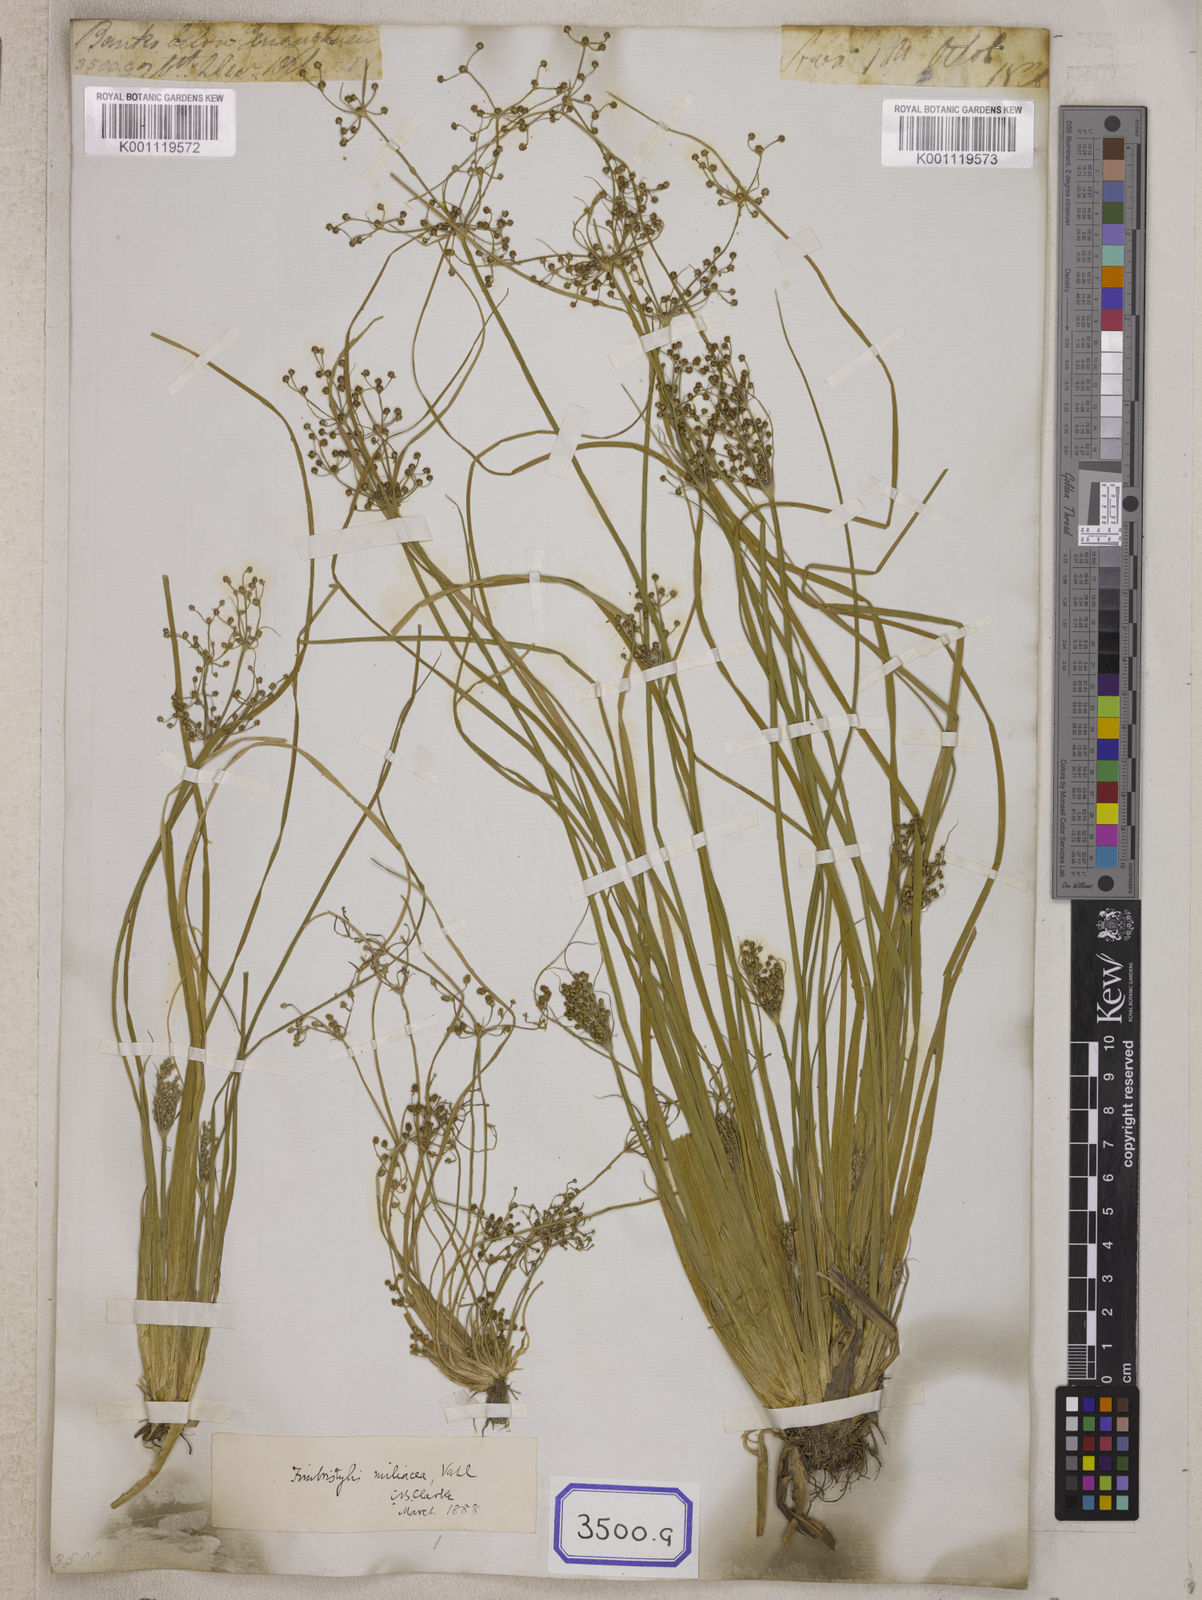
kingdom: Plantae
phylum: Tracheophyta
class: Liliopsida
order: Poales
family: Cyperaceae
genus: Fimbristylis
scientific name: Fimbristylis
